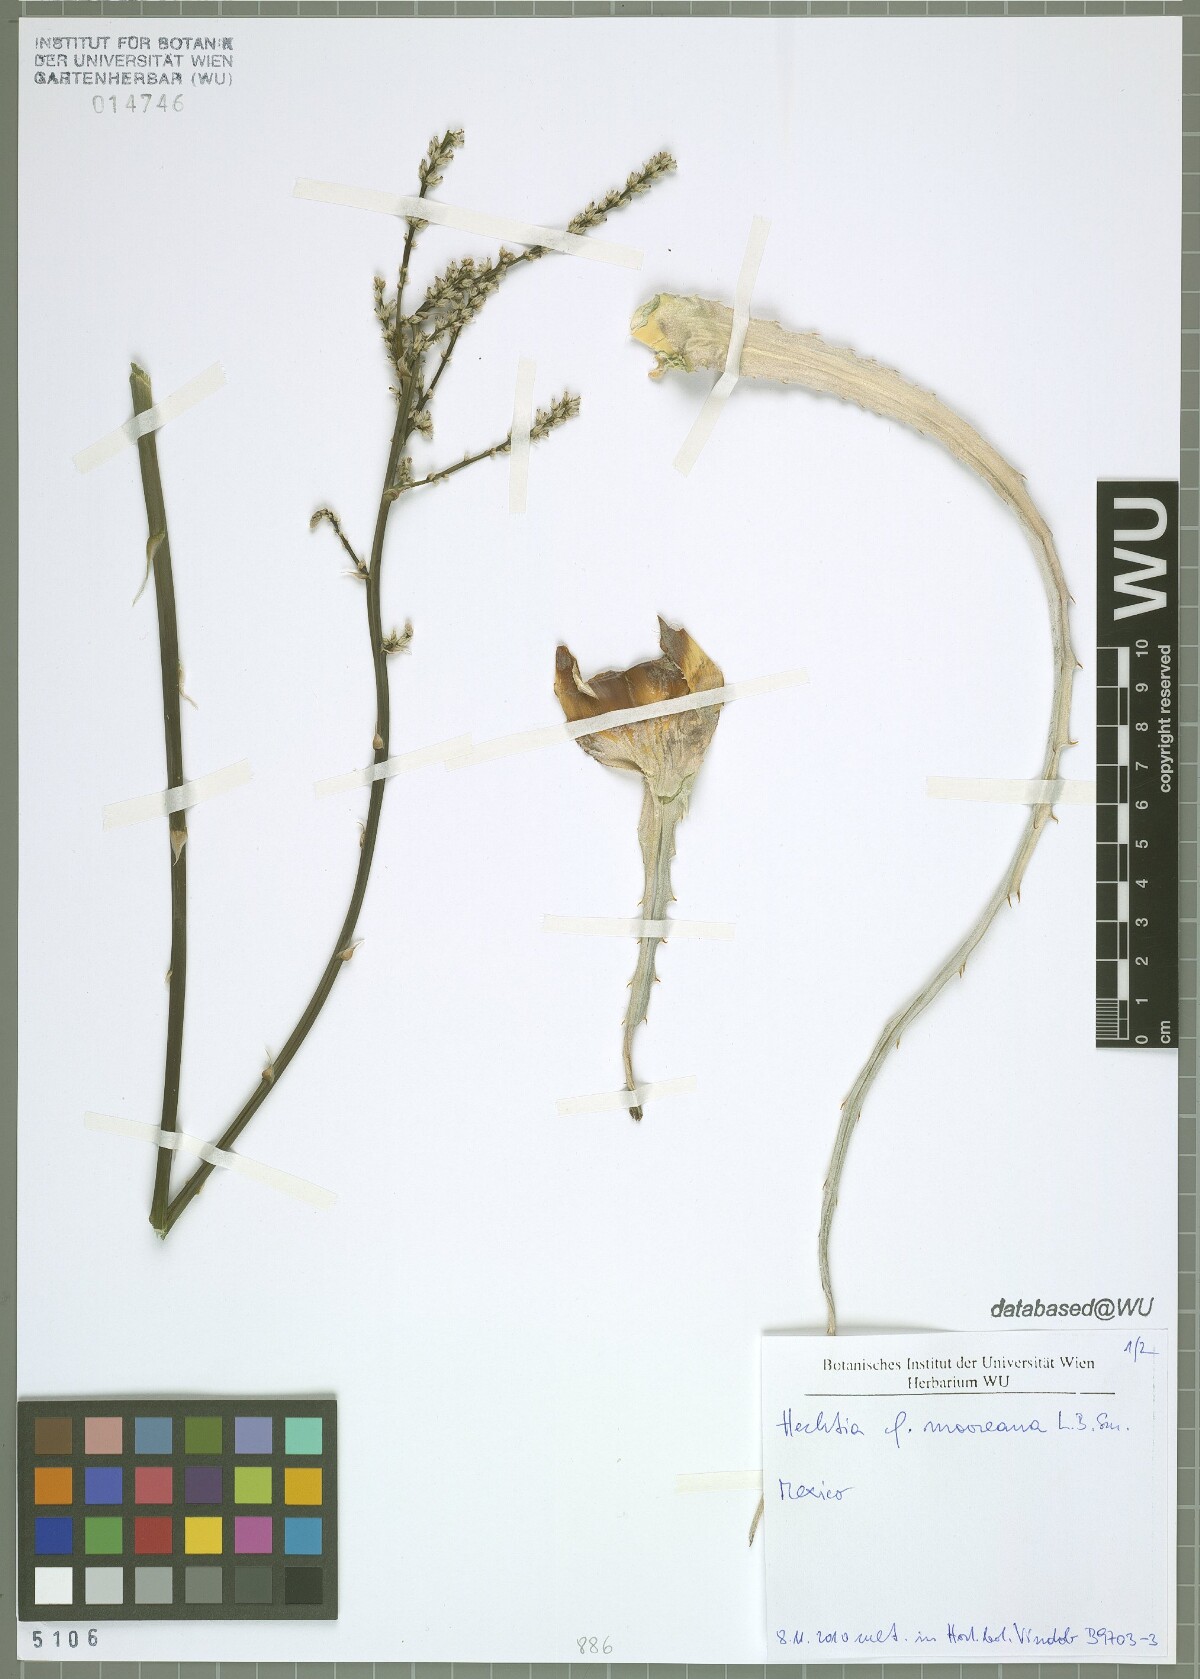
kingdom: Plantae
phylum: Tracheophyta
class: Liliopsida
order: Poales
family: Bromeliaceae
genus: Hechtia
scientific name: Hechtia mooreana
